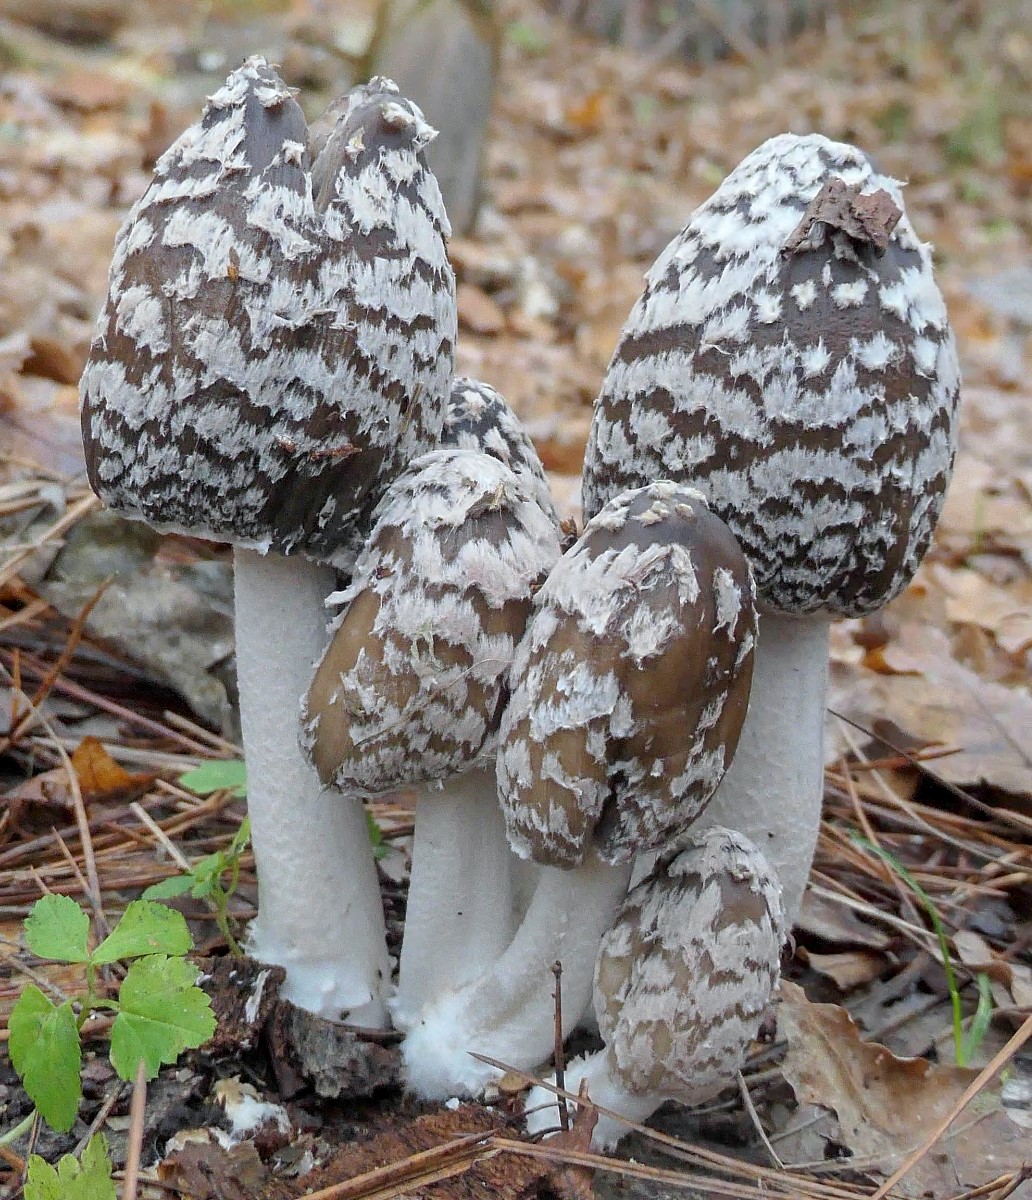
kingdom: Fungi
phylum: Basidiomycota
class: Agaricomycetes
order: Agaricales
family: Psathyrellaceae
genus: Coprinopsis
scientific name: Coprinopsis picacea
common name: skade-blækhat
